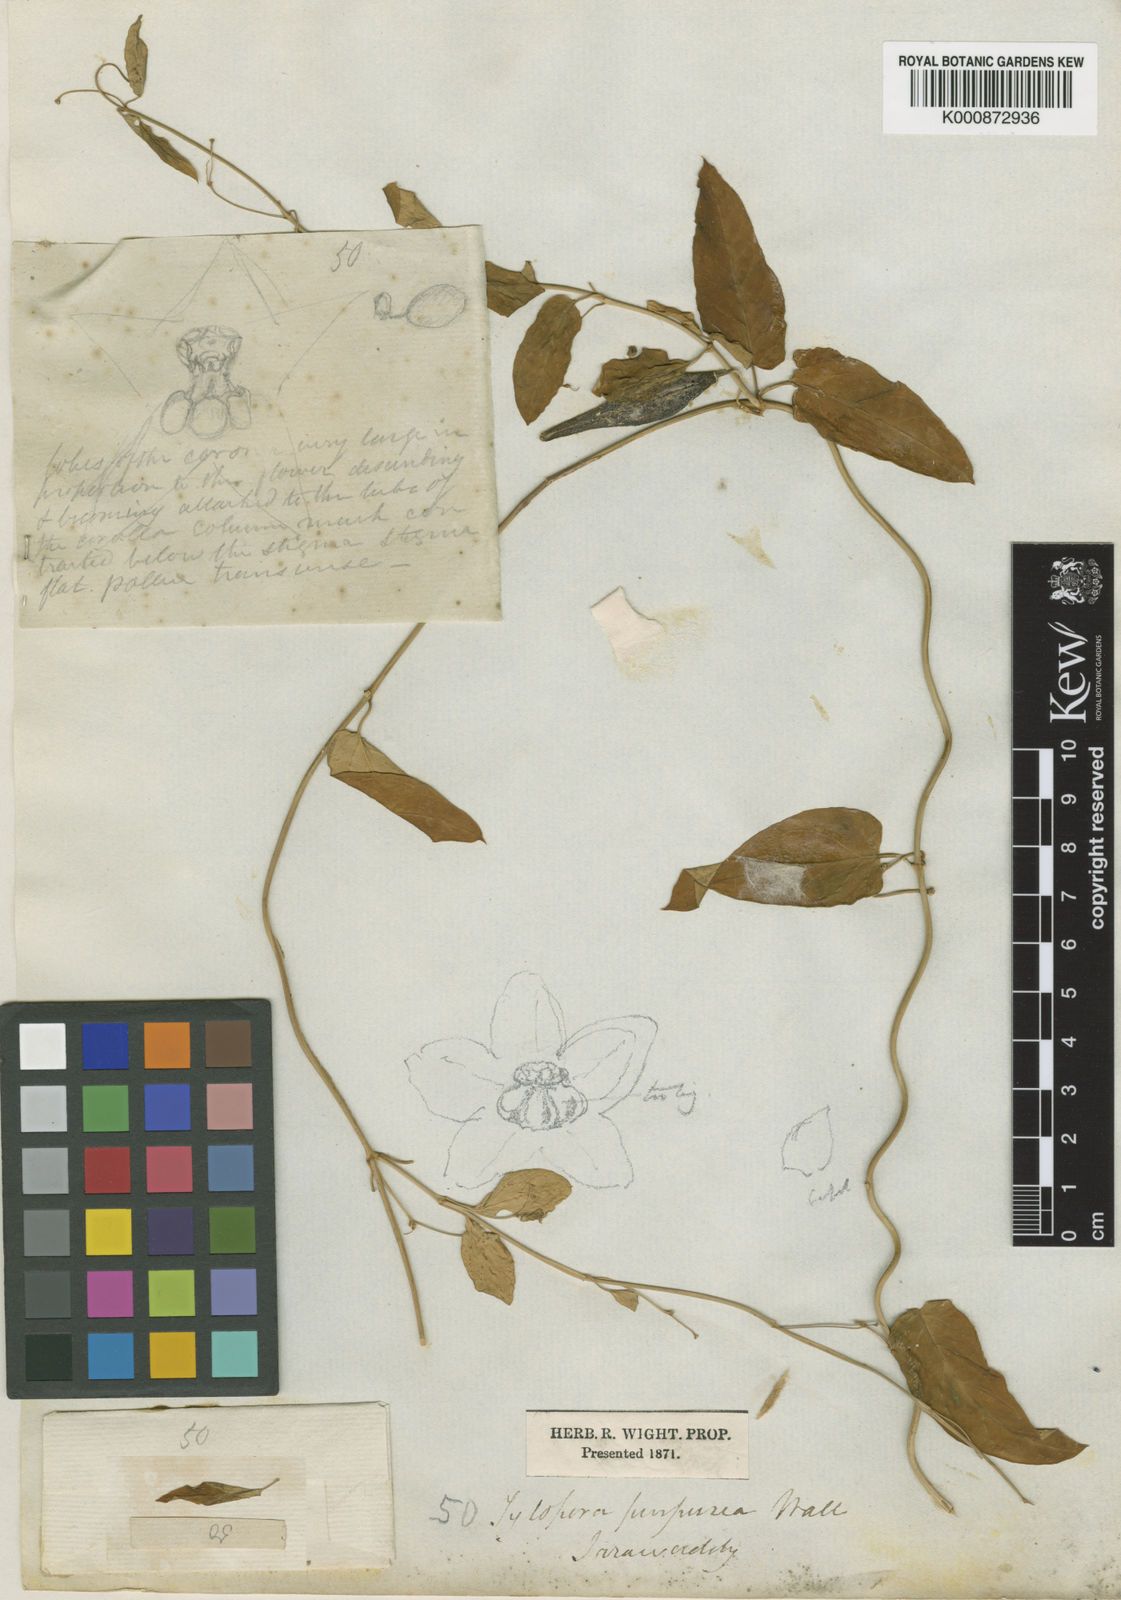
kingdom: Plantae
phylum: Tracheophyta
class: Magnoliopsida
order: Gentianales
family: Apocynaceae
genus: Vincetoxicum
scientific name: Vincetoxicum irrawadense
